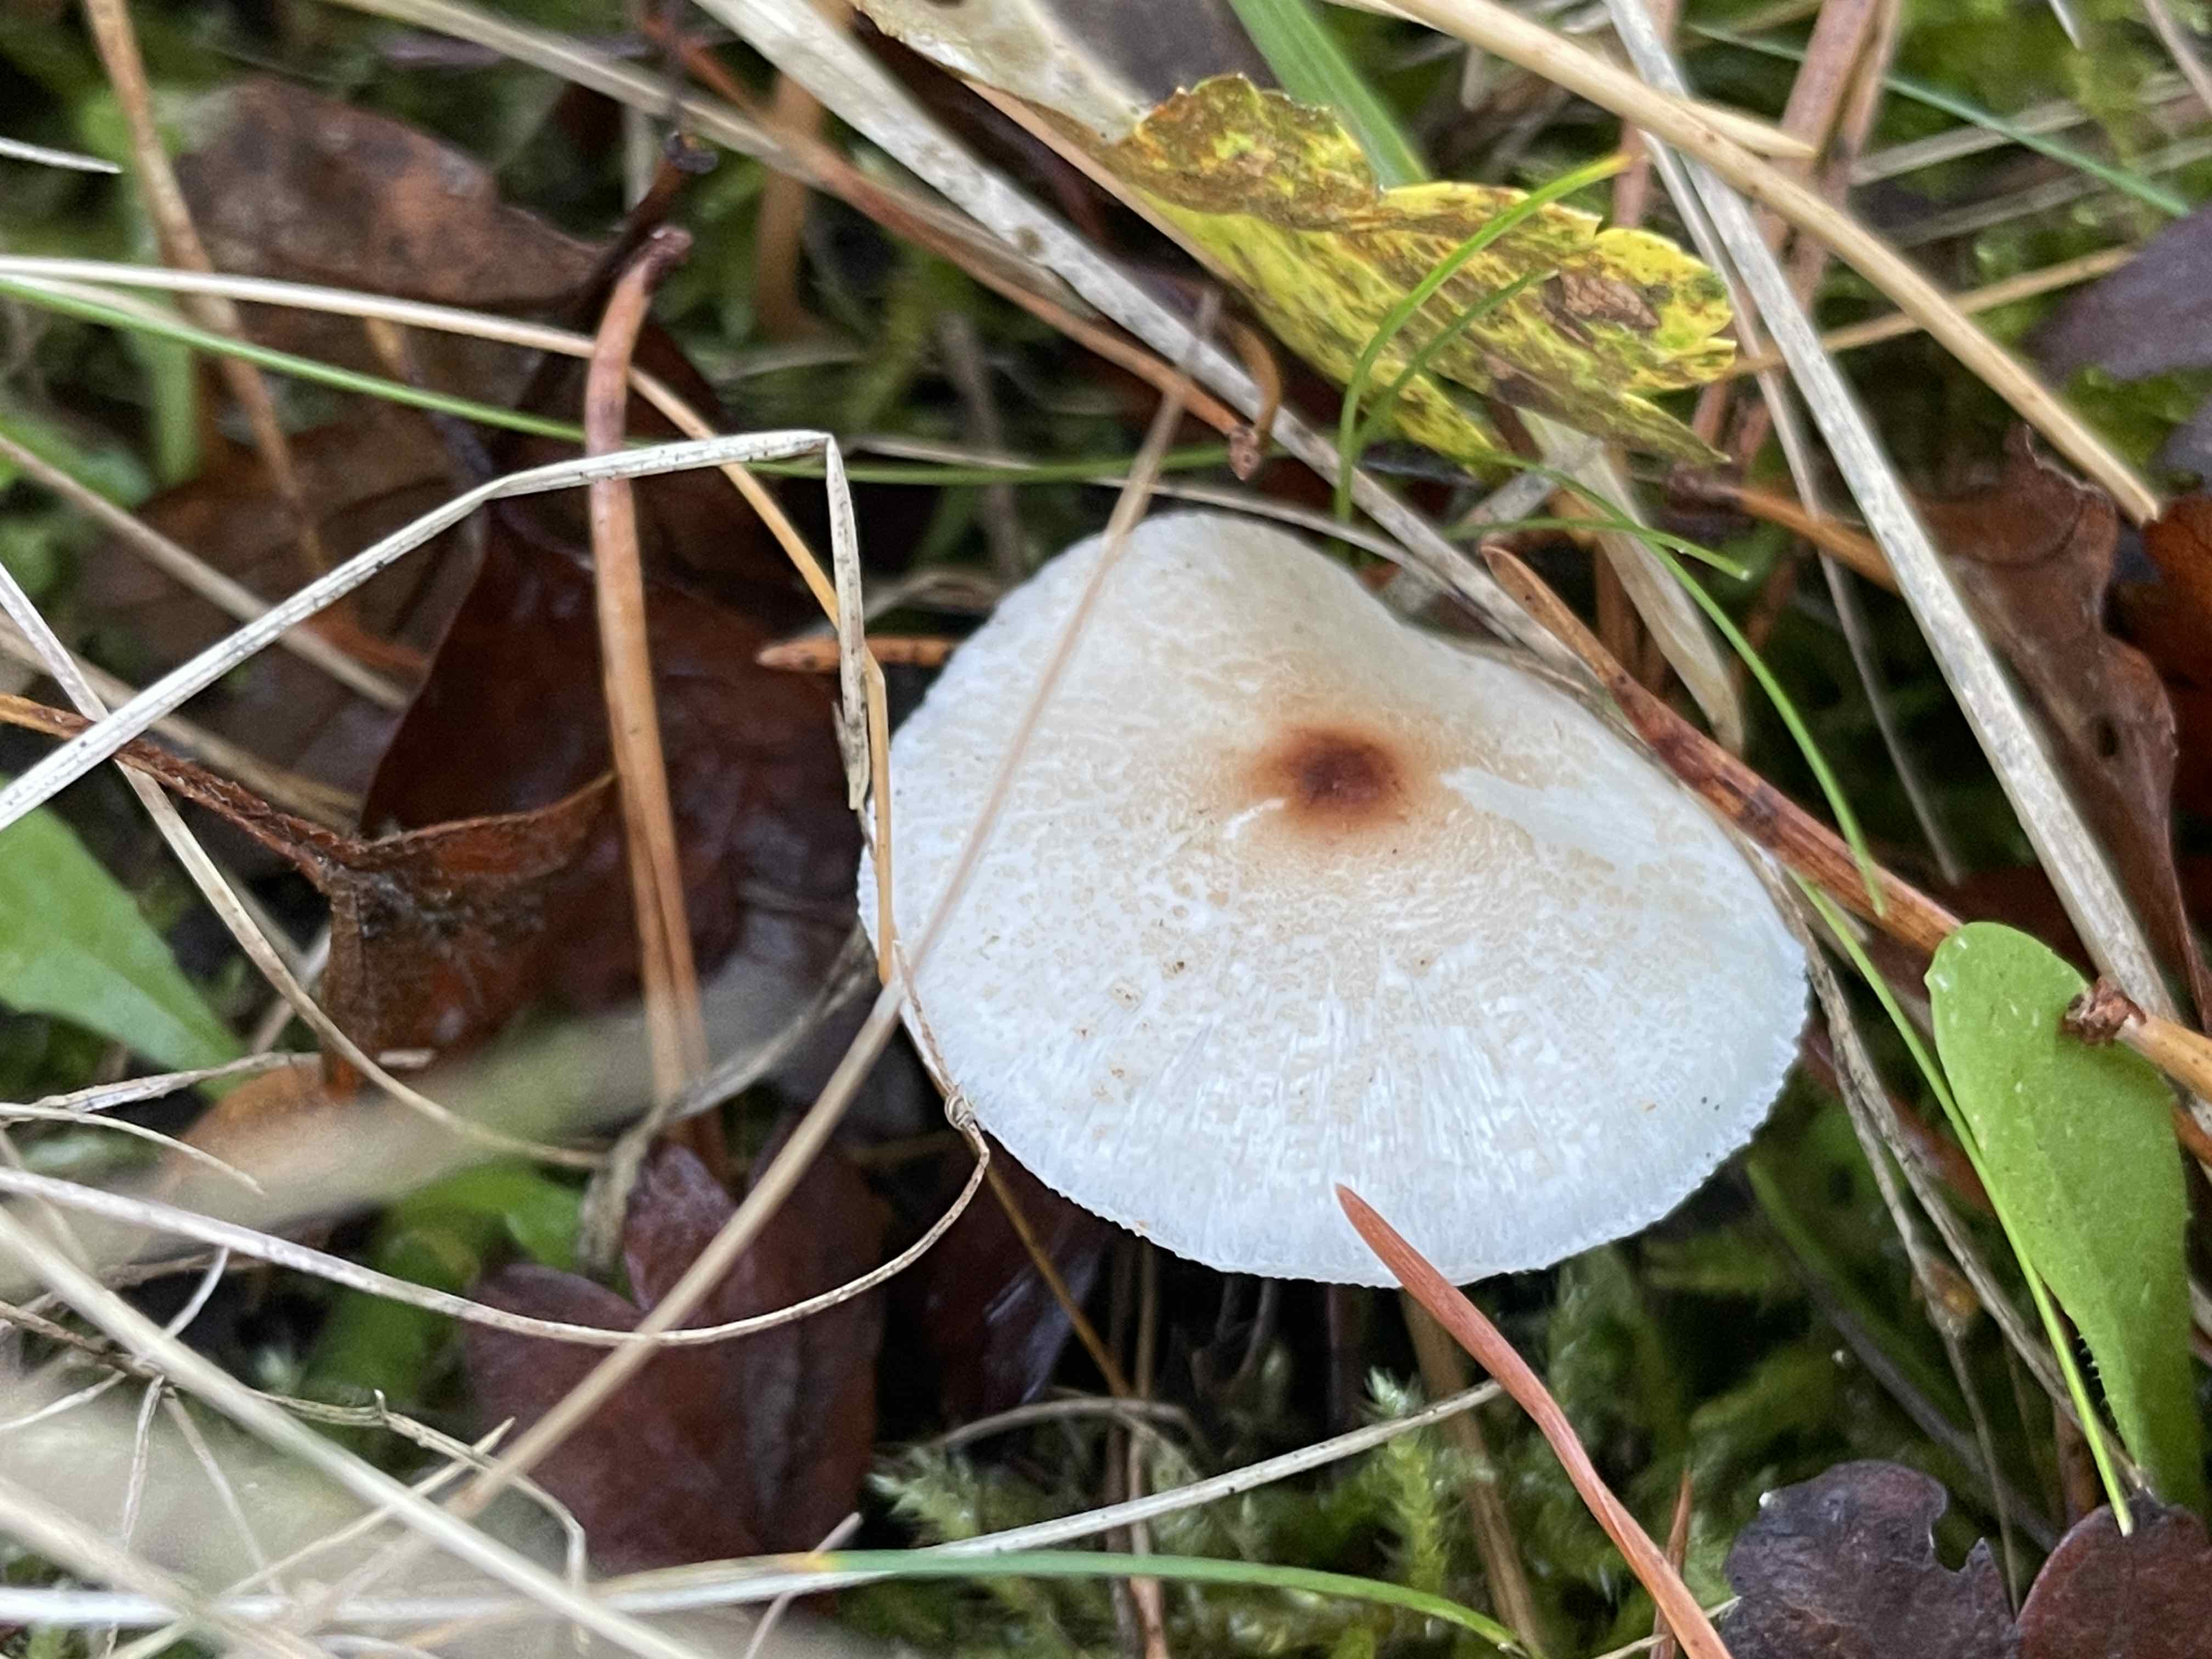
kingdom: Fungi
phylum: Basidiomycota
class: Agaricomycetes
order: Agaricales
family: Agaricaceae
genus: Lepiota
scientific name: Lepiota cristata
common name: stinkende parasolhat
